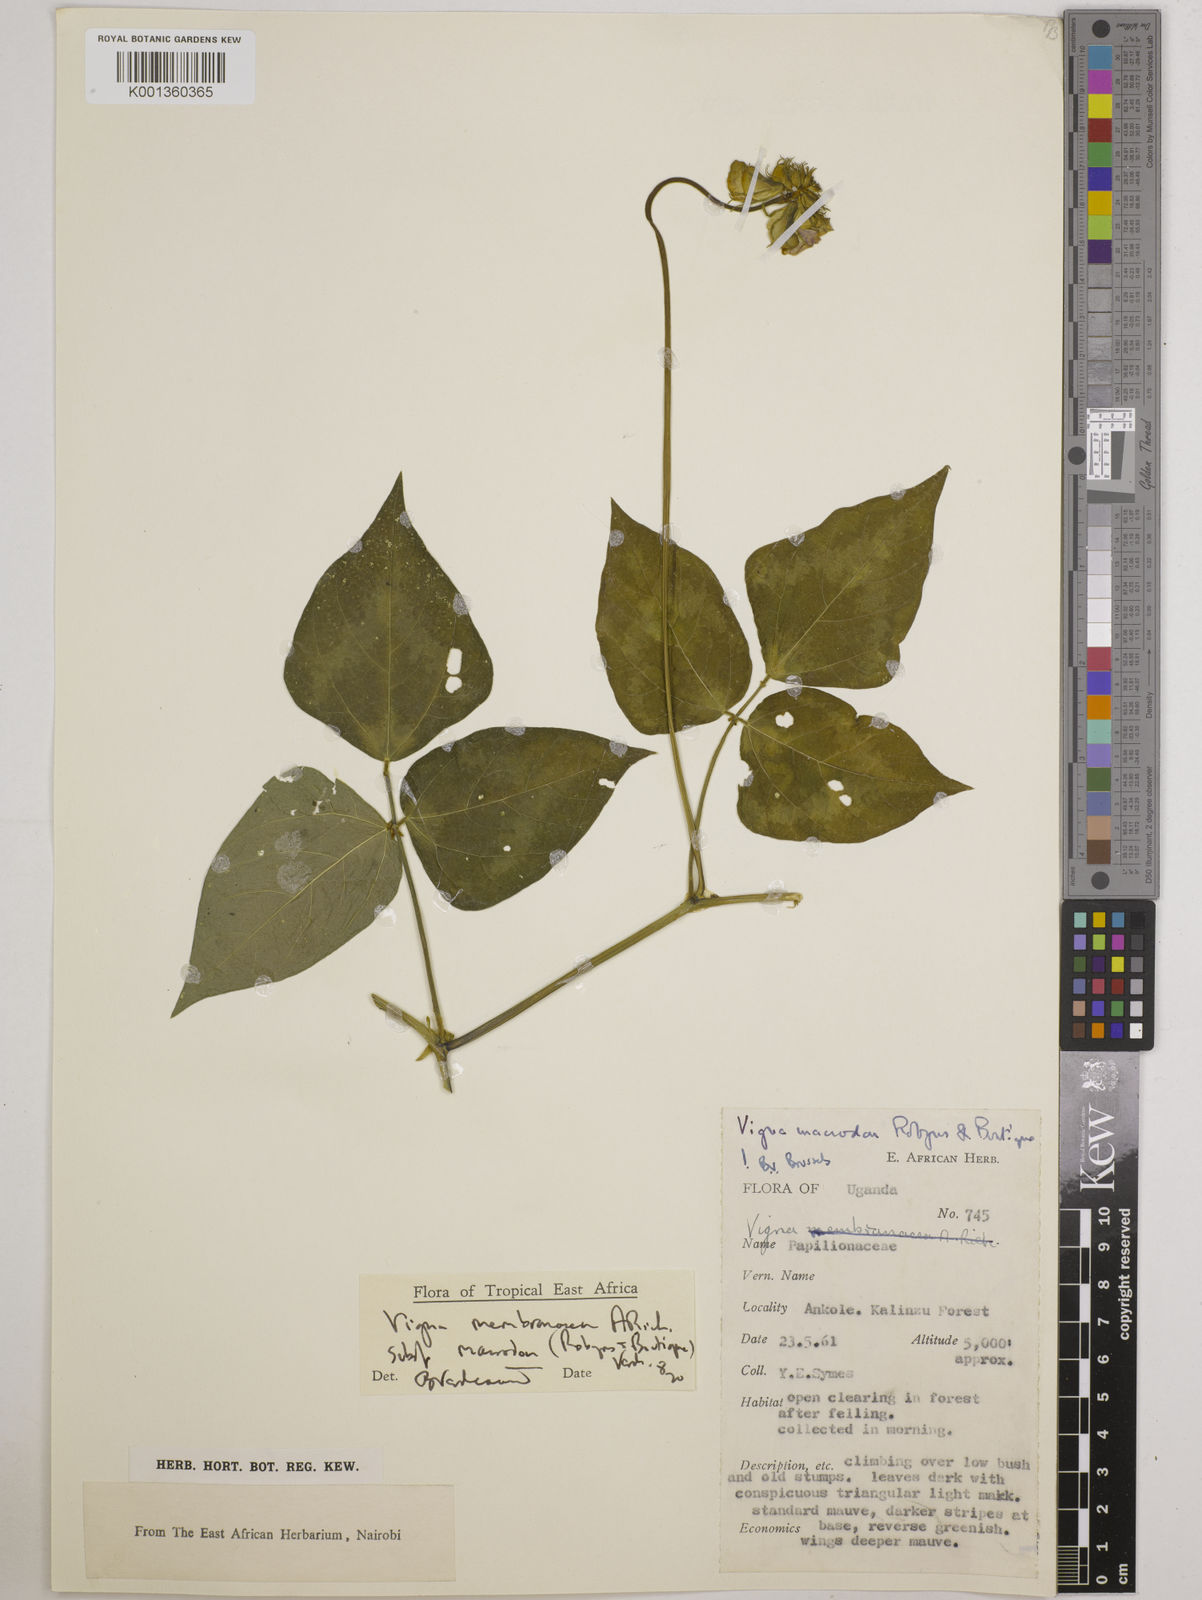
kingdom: Plantae
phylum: Tracheophyta
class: Magnoliopsida
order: Fabales
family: Fabaceae
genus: Vigna
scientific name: Vigna
